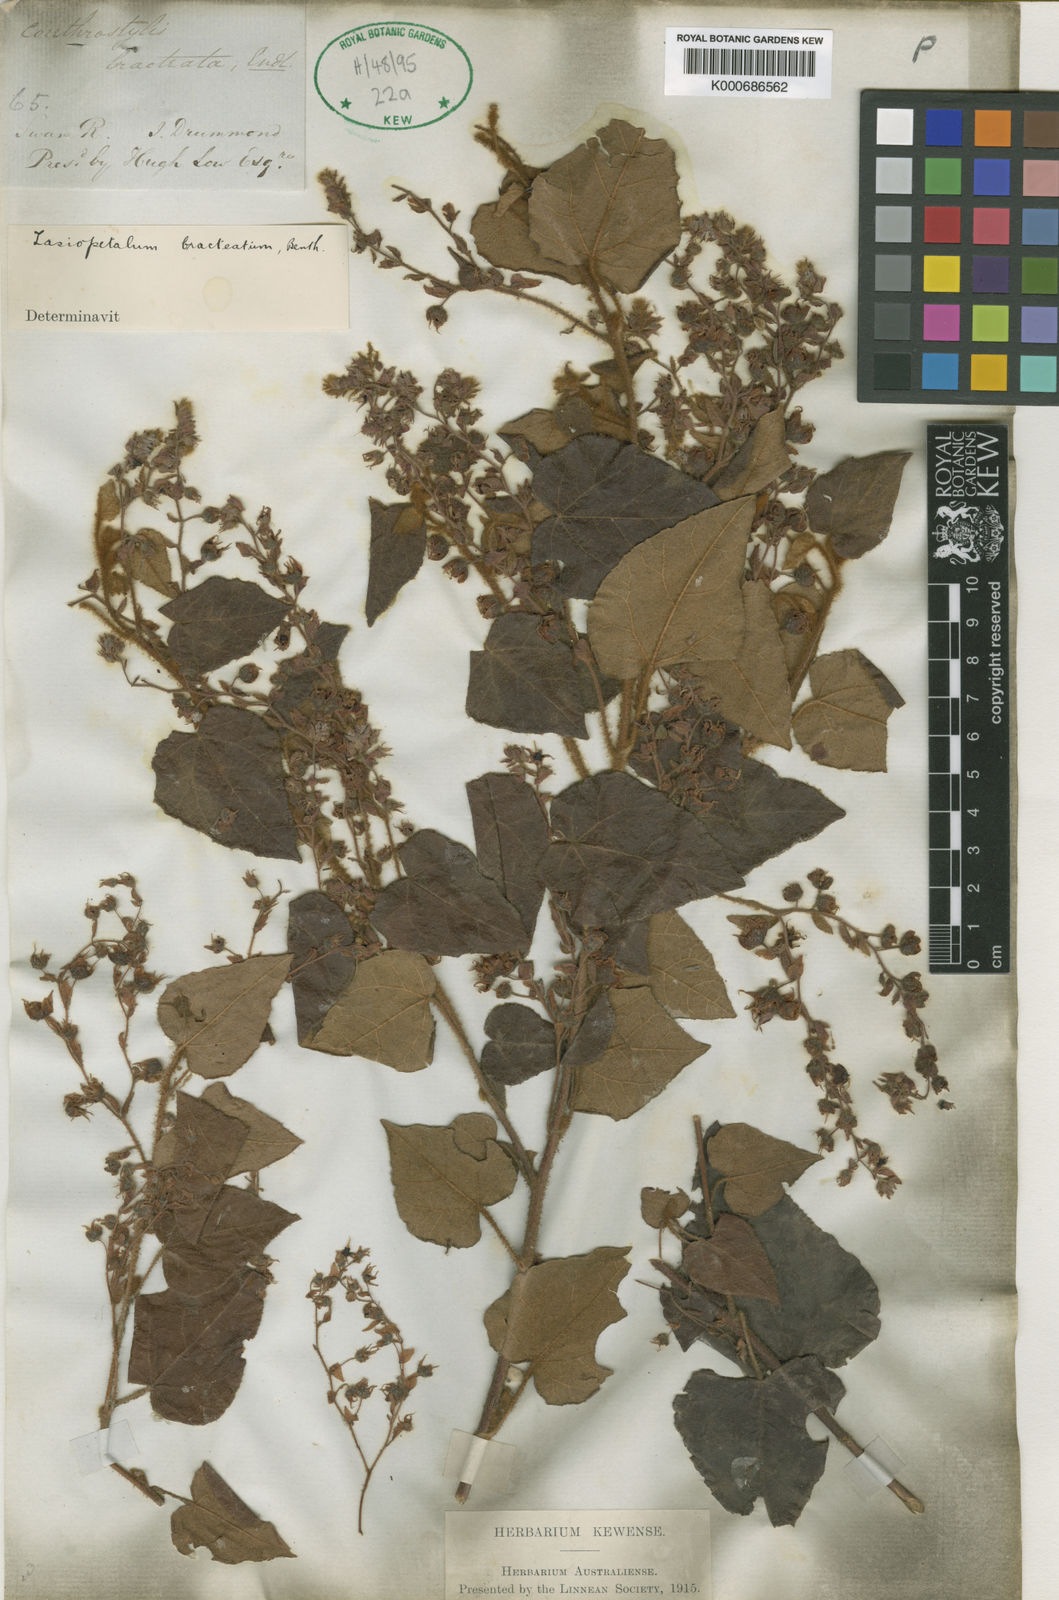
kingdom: Plantae
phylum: Tracheophyta
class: Magnoliopsida
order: Malvales
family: Malvaceae
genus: Lasiopetalum
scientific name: Lasiopetalum bracteatum
